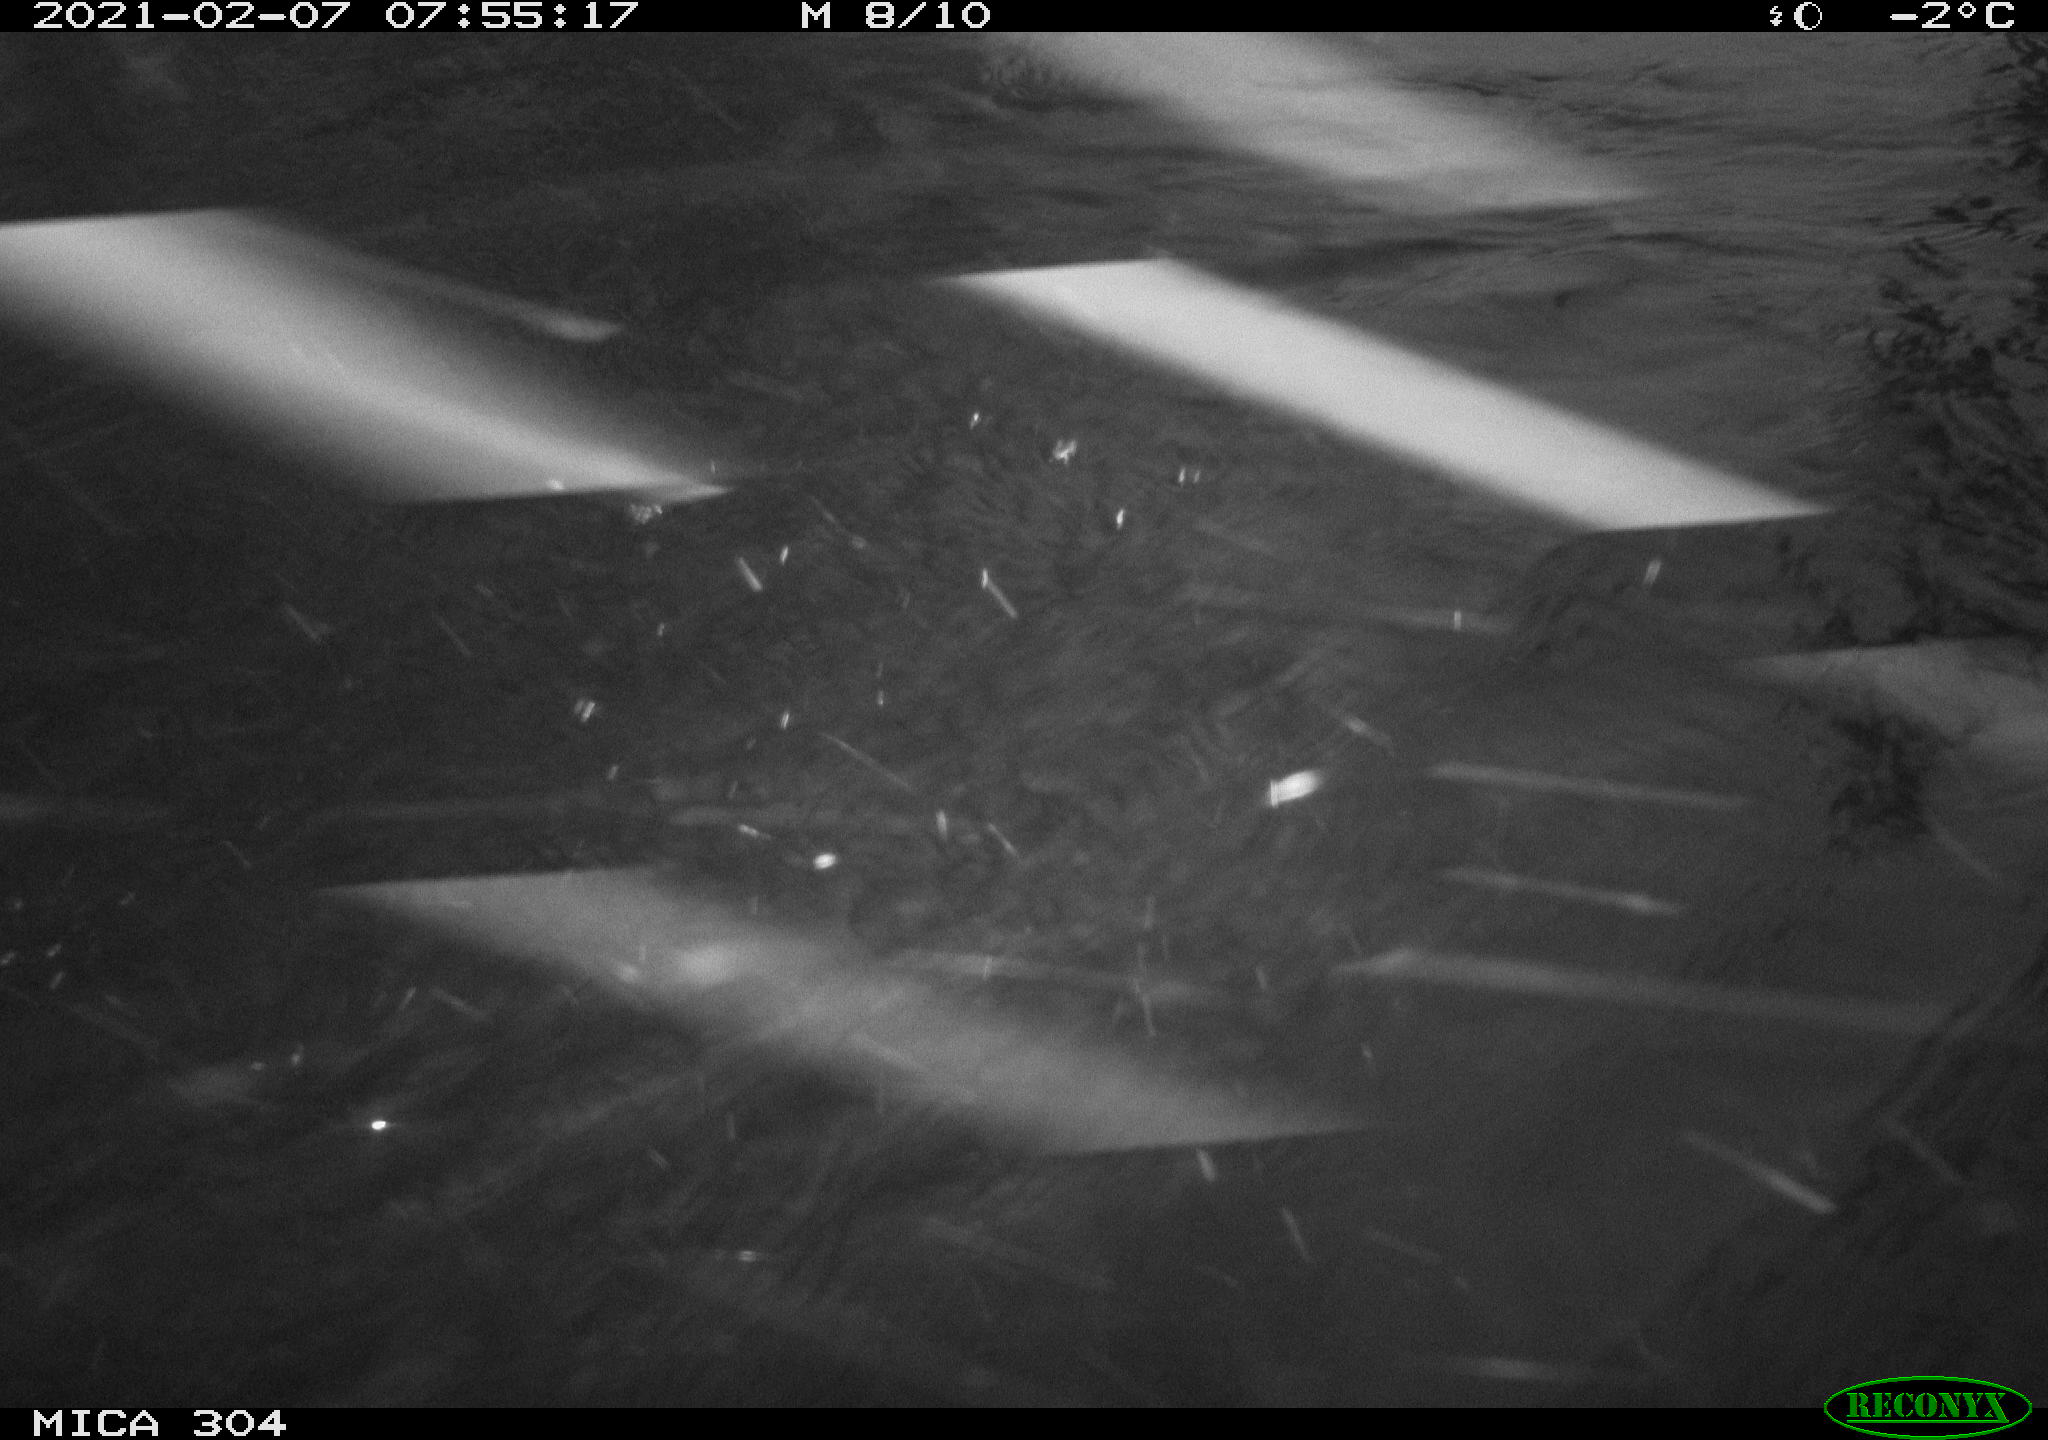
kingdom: Animalia
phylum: Chordata
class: Aves
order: Anseriformes
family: Anatidae
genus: Anas
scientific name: Anas platyrhynchos
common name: Mallard
